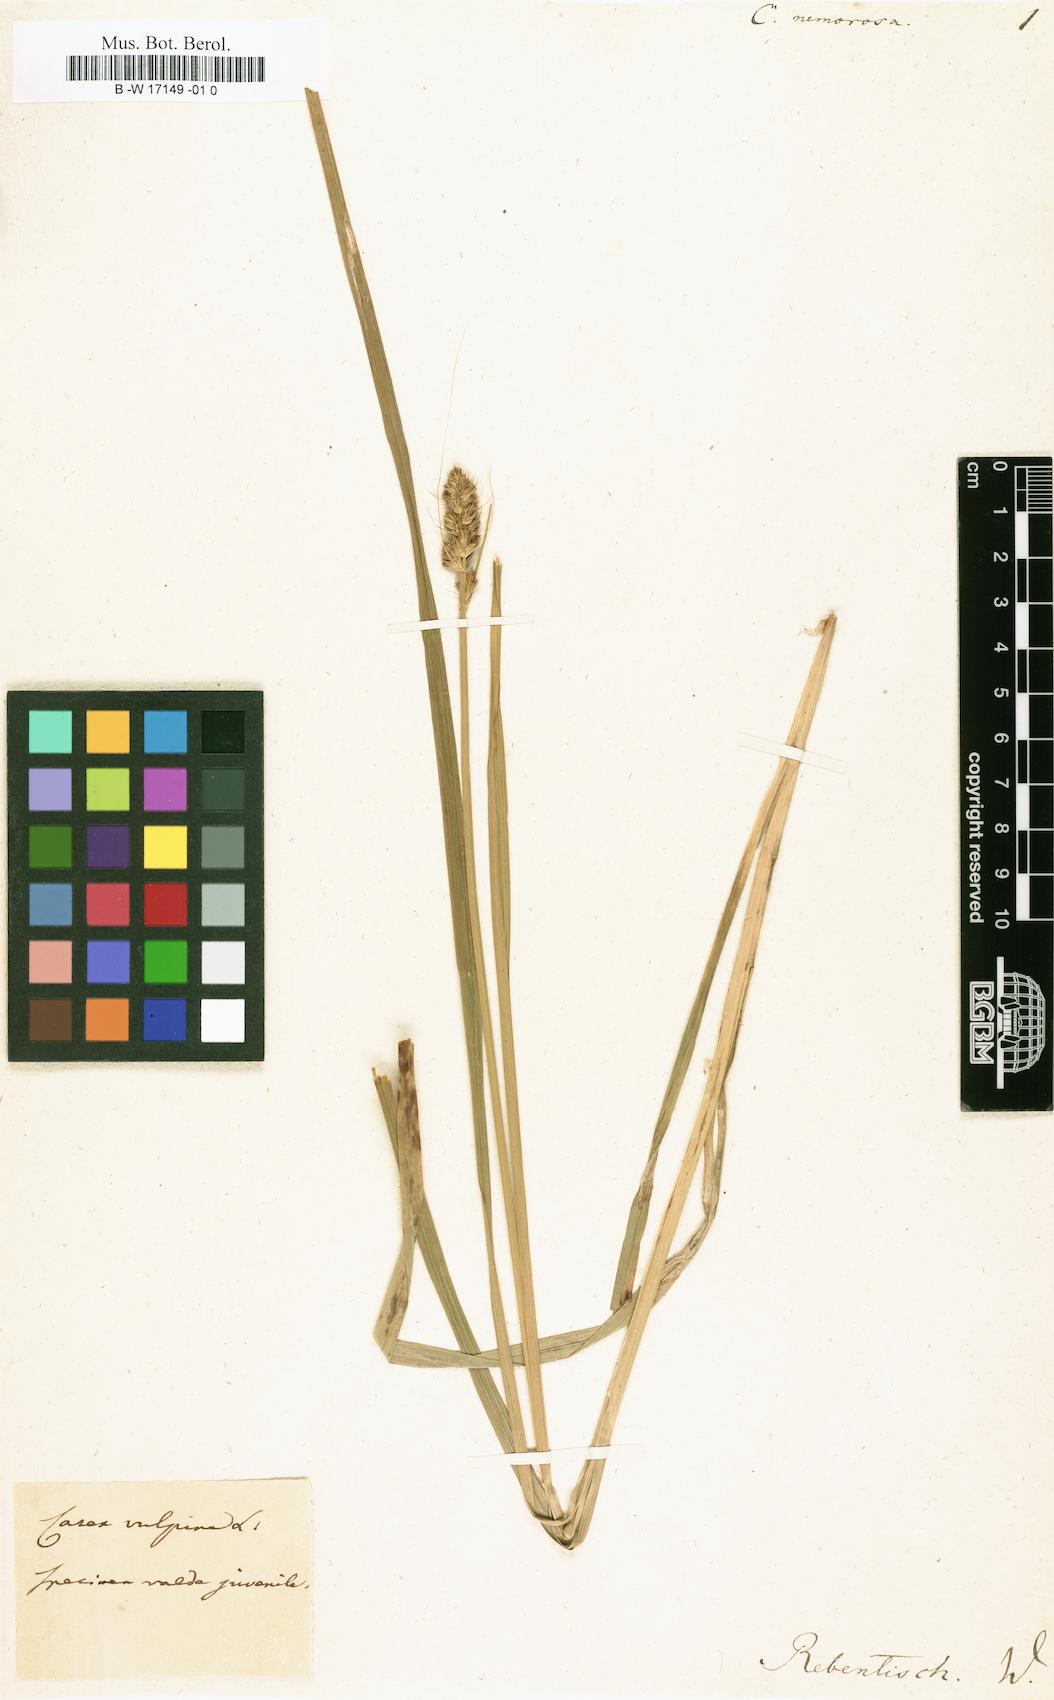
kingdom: Plantae
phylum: Tracheophyta
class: Liliopsida
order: Poales
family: Cyperaceae
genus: Carex
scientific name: Carex divulsa
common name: Grassland sedge
